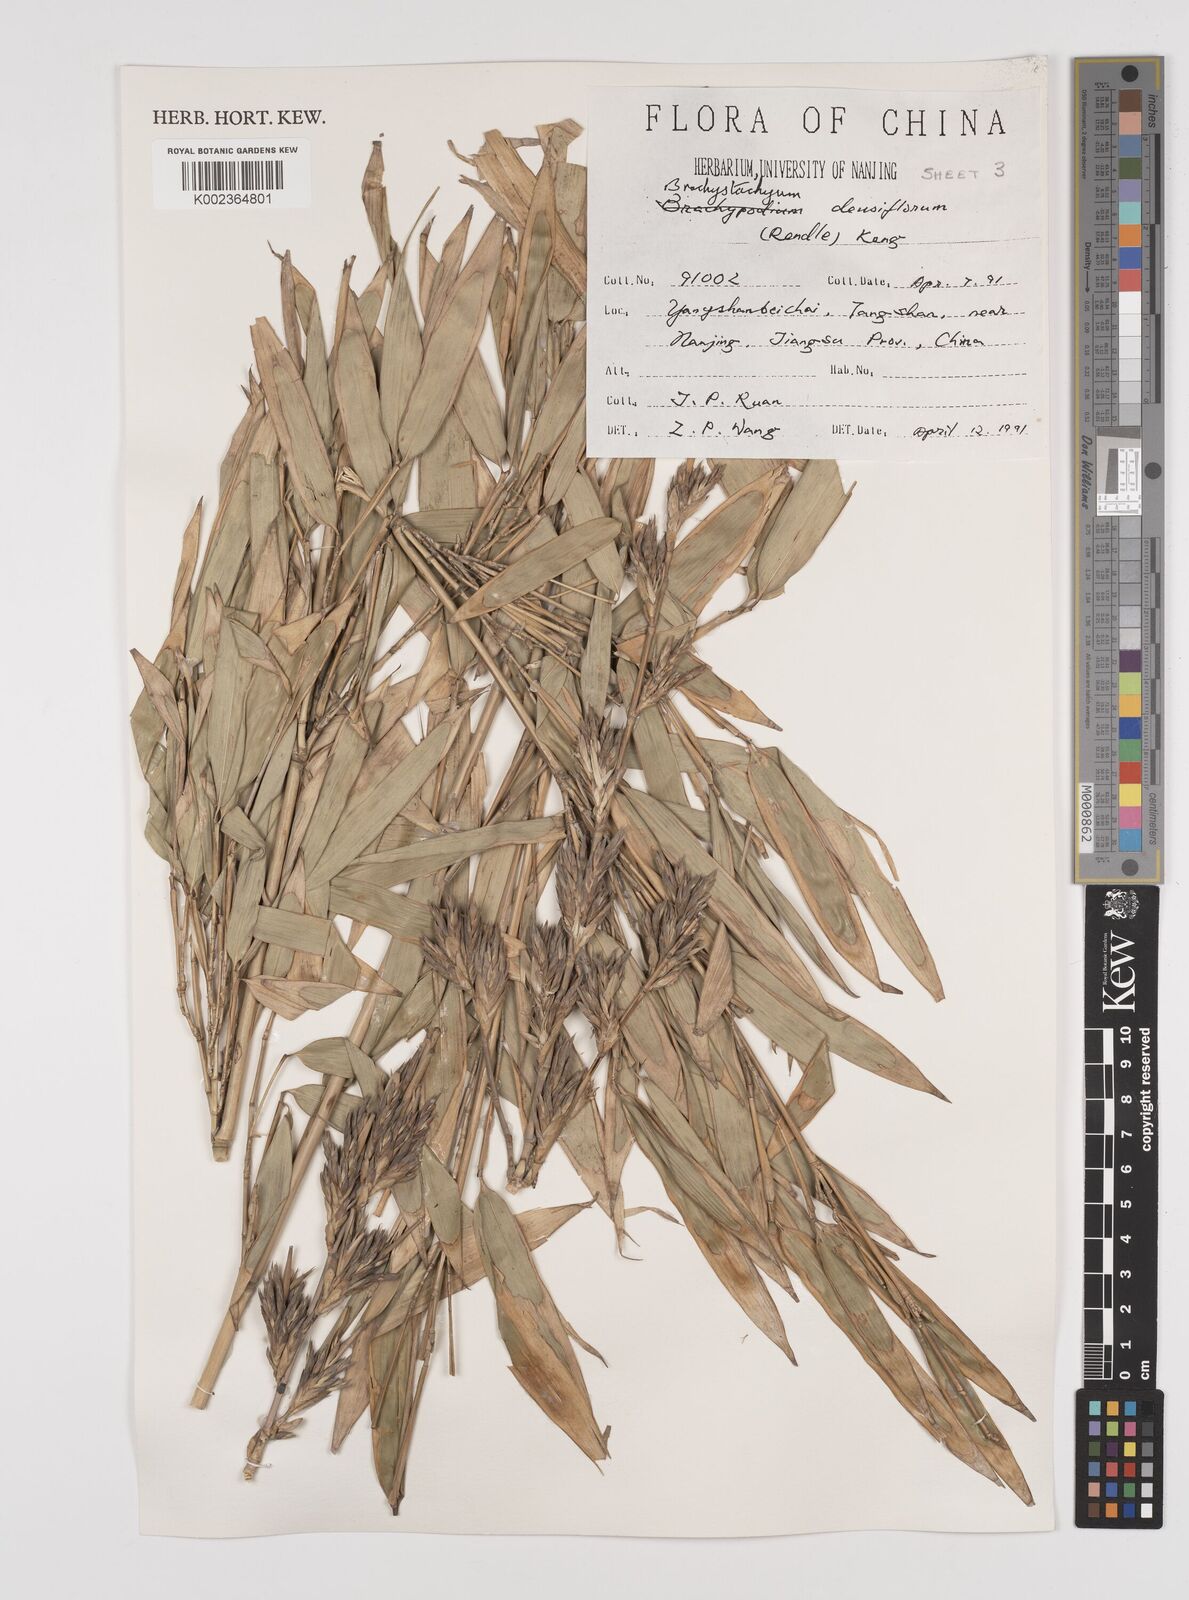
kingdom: Plantae
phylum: Tracheophyta
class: Liliopsida
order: Poales
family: Poaceae
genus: Brachystachyum
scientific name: Brachystachyum densiflorum
